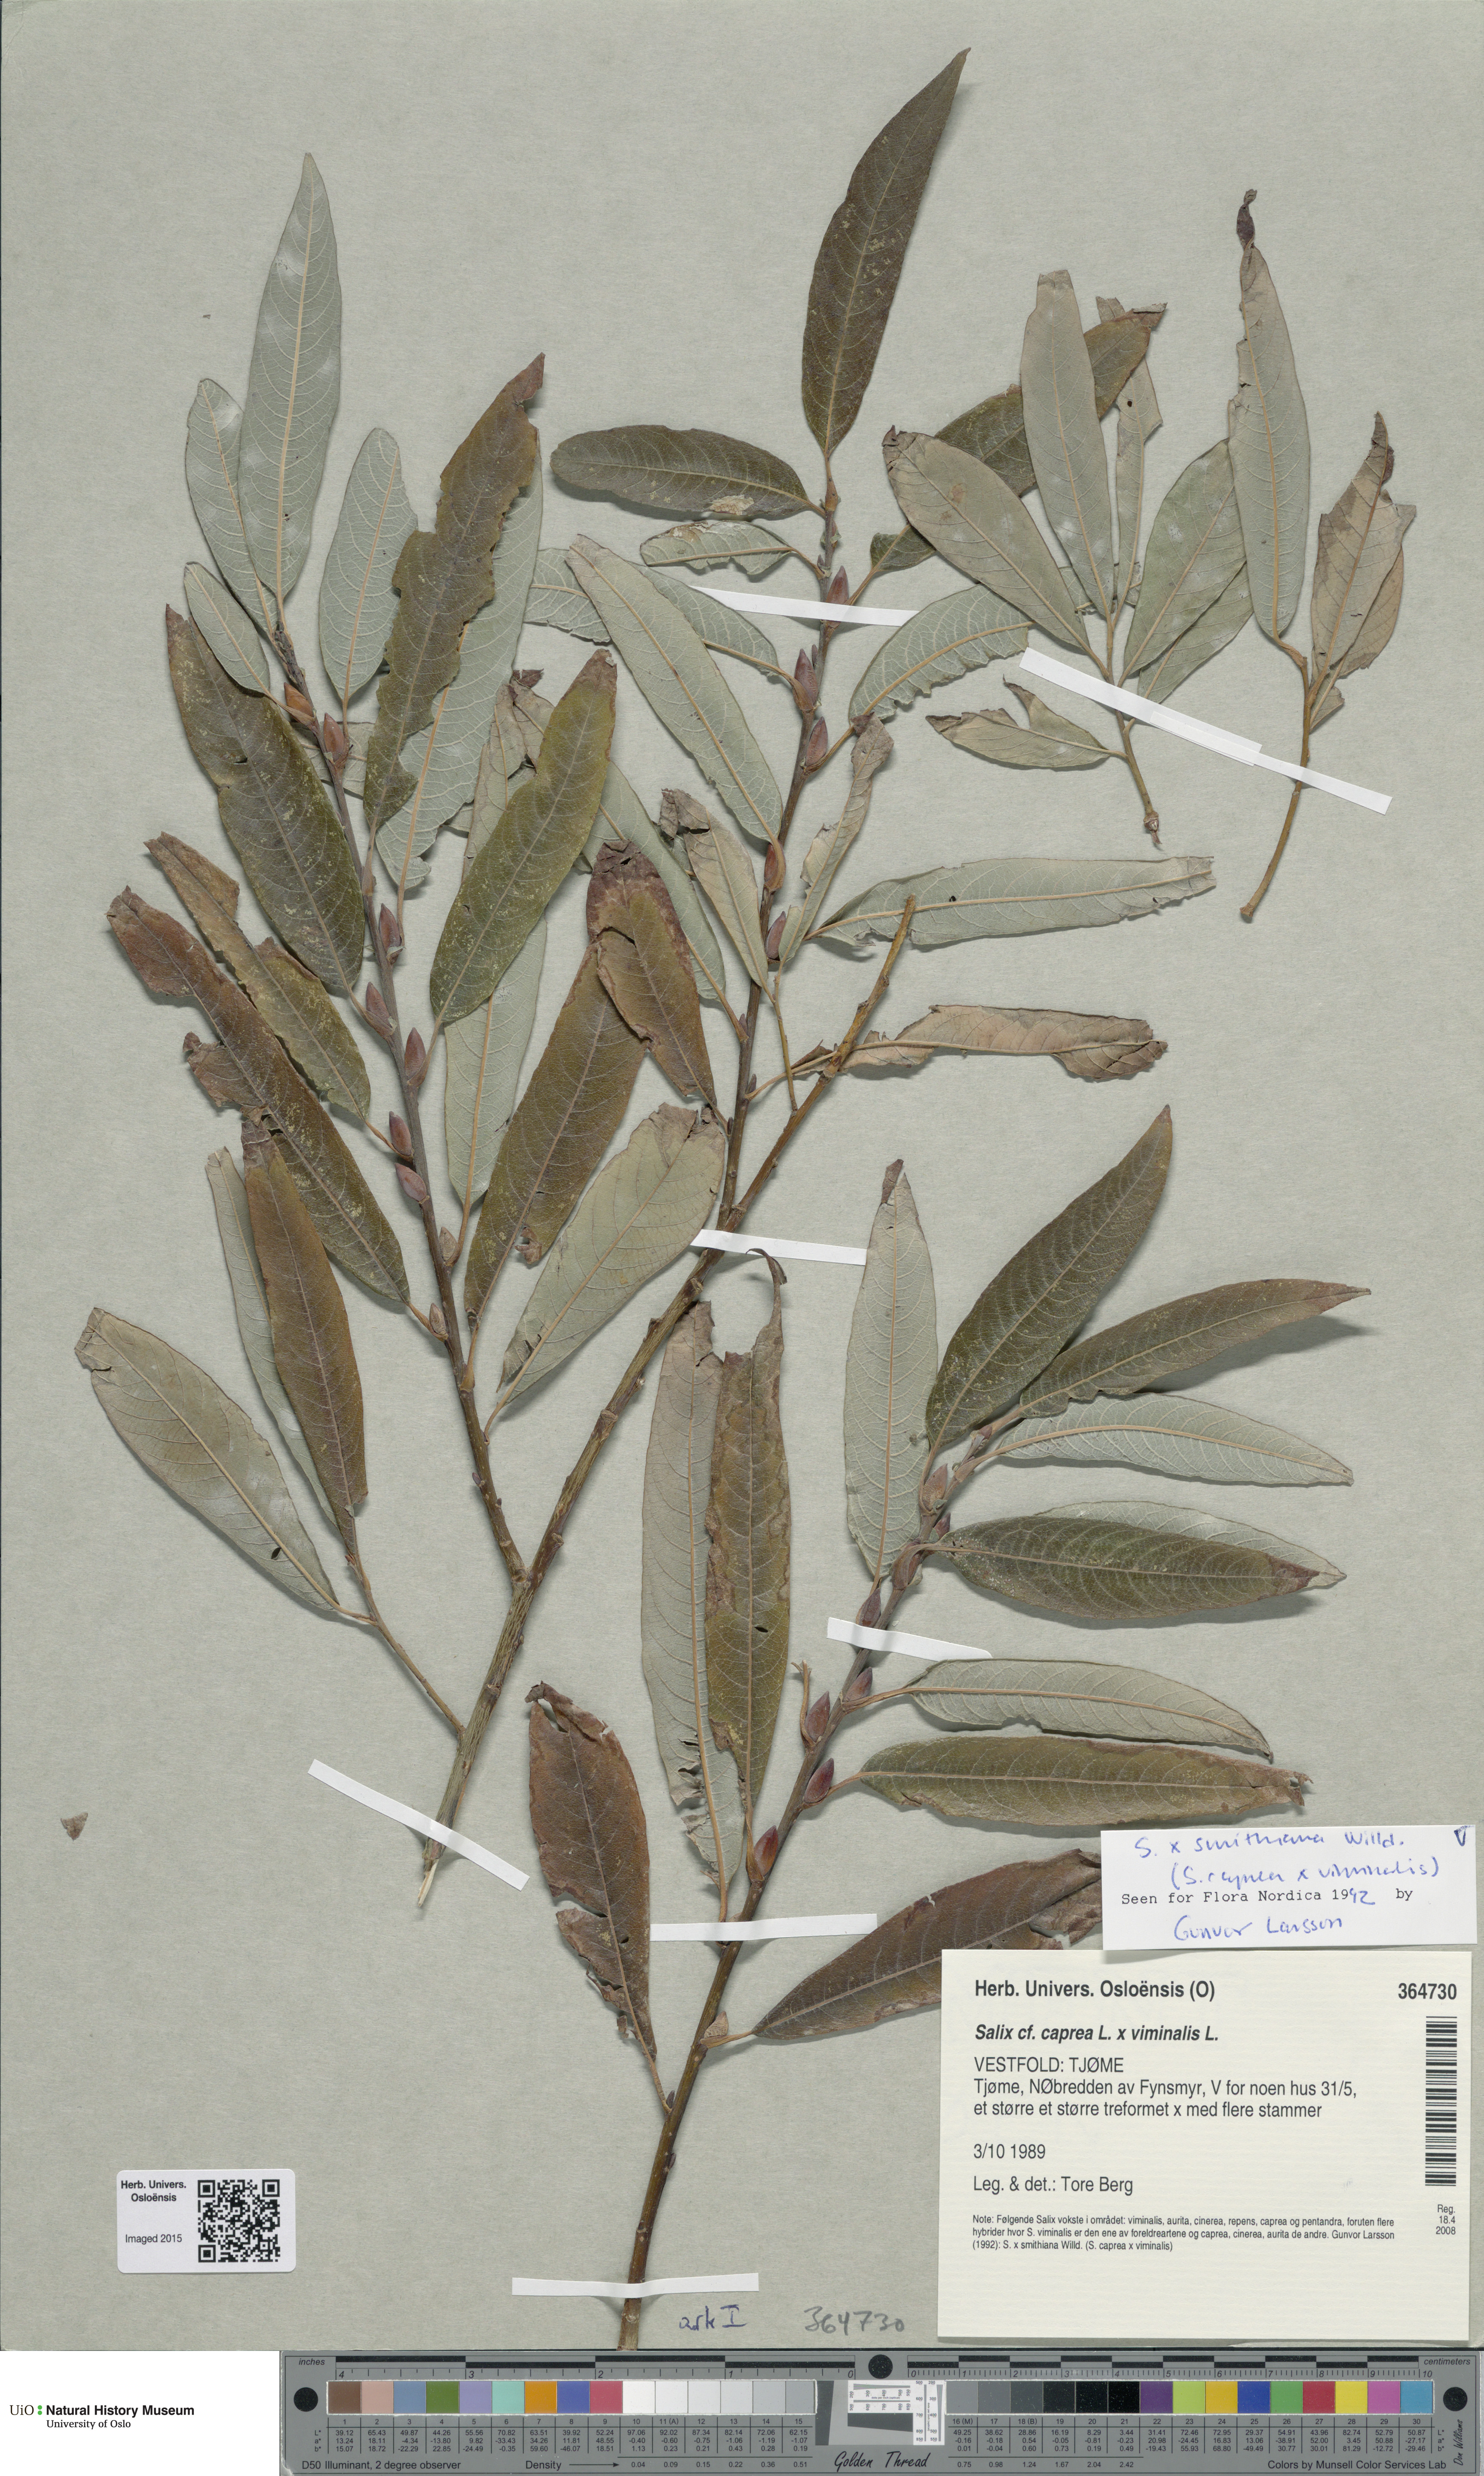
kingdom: Plantae
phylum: Tracheophyta
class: Magnoliopsida
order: Malpighiales
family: Salicaceae
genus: Salix
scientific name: Salix smithiana
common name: Silky-leaved osier
